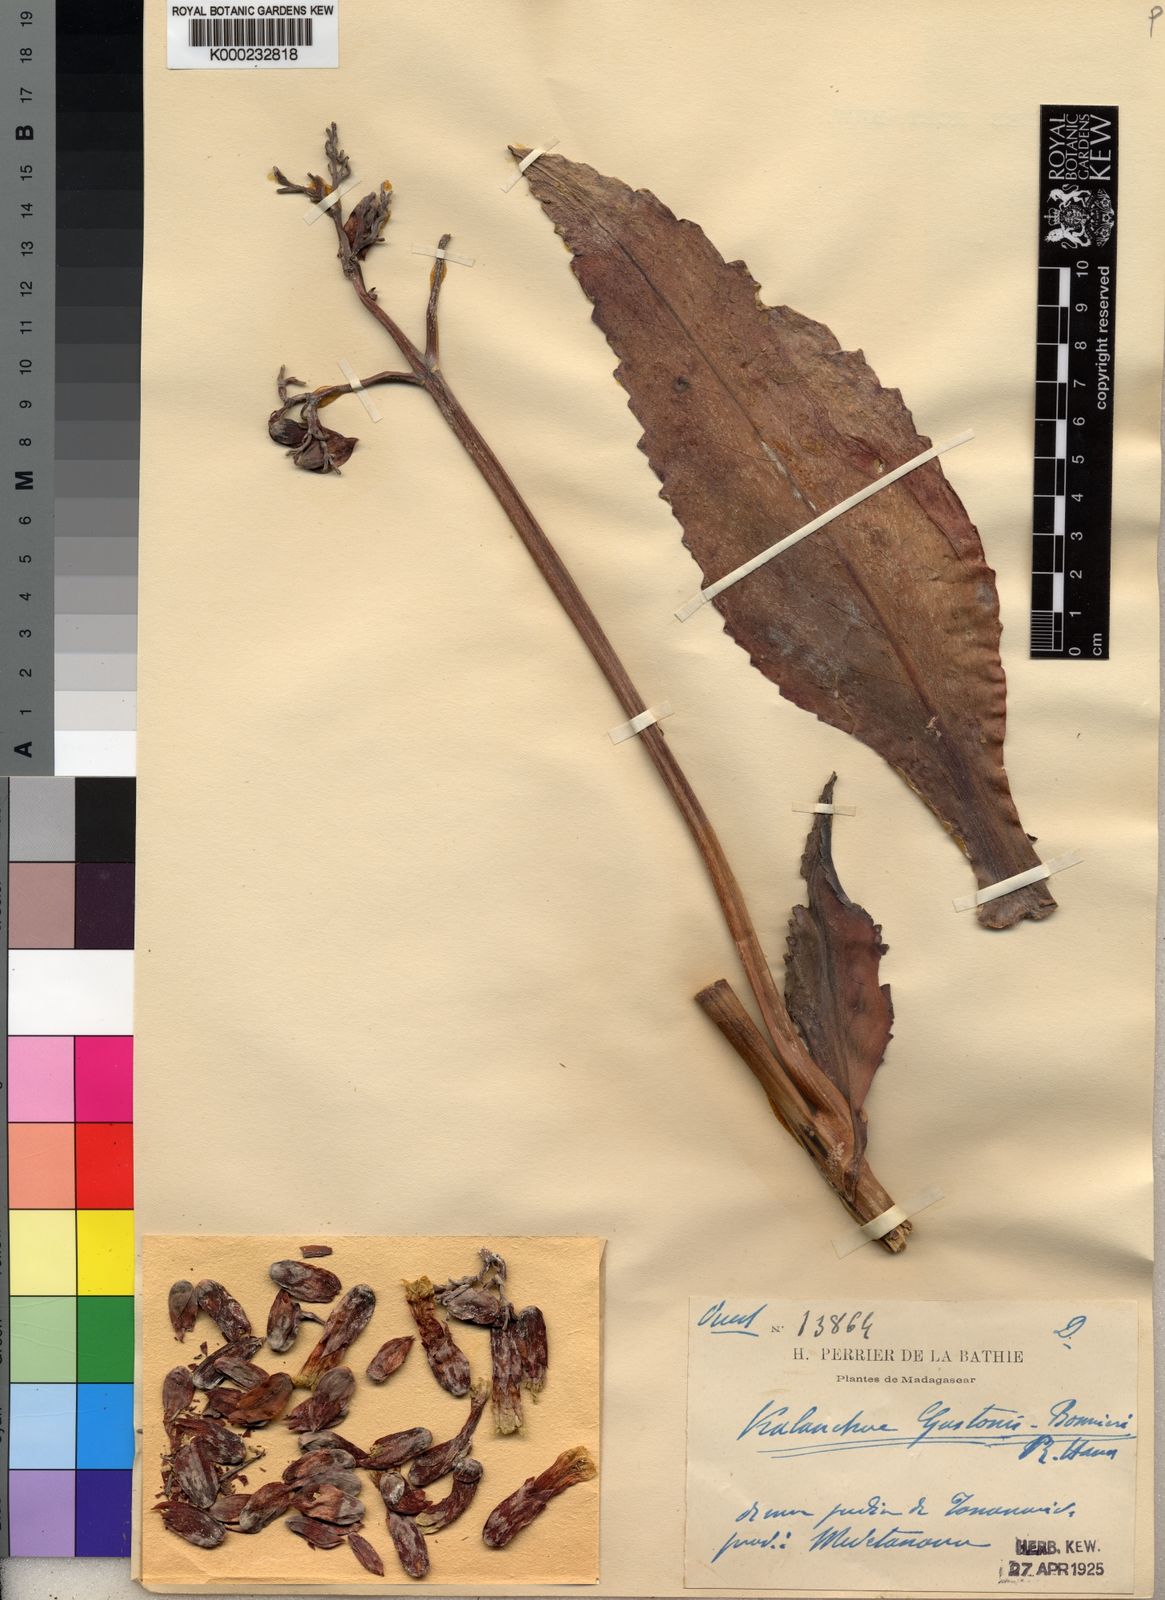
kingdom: Chromista
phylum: Ciliophora
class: Gymnostomatea
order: Spathidiida
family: Spathidiidae
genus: Bryophyllum
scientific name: Bryophyllum
